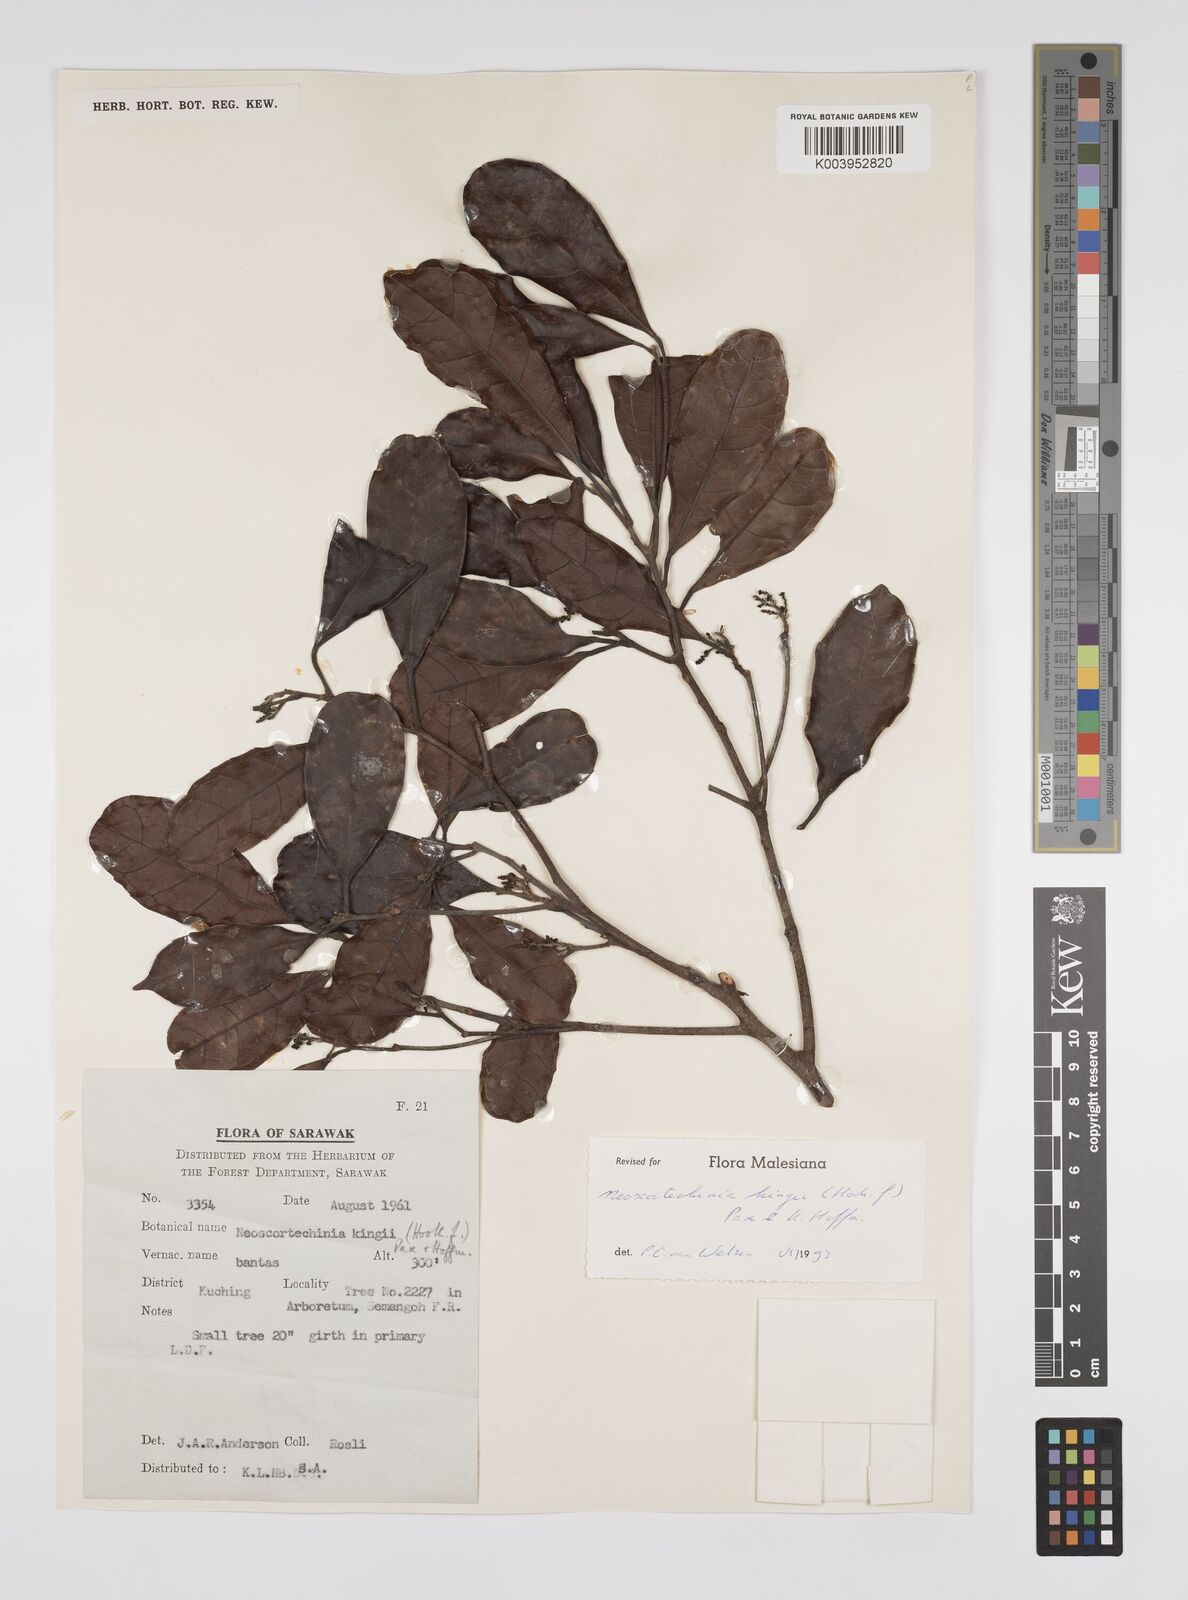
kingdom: Plantae
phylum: Tracheophyta
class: Magnoliopsida
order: Malpighiales
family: Euphorbiaceae
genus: Neoscortechinia
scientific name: Neoscortechinia kingii
